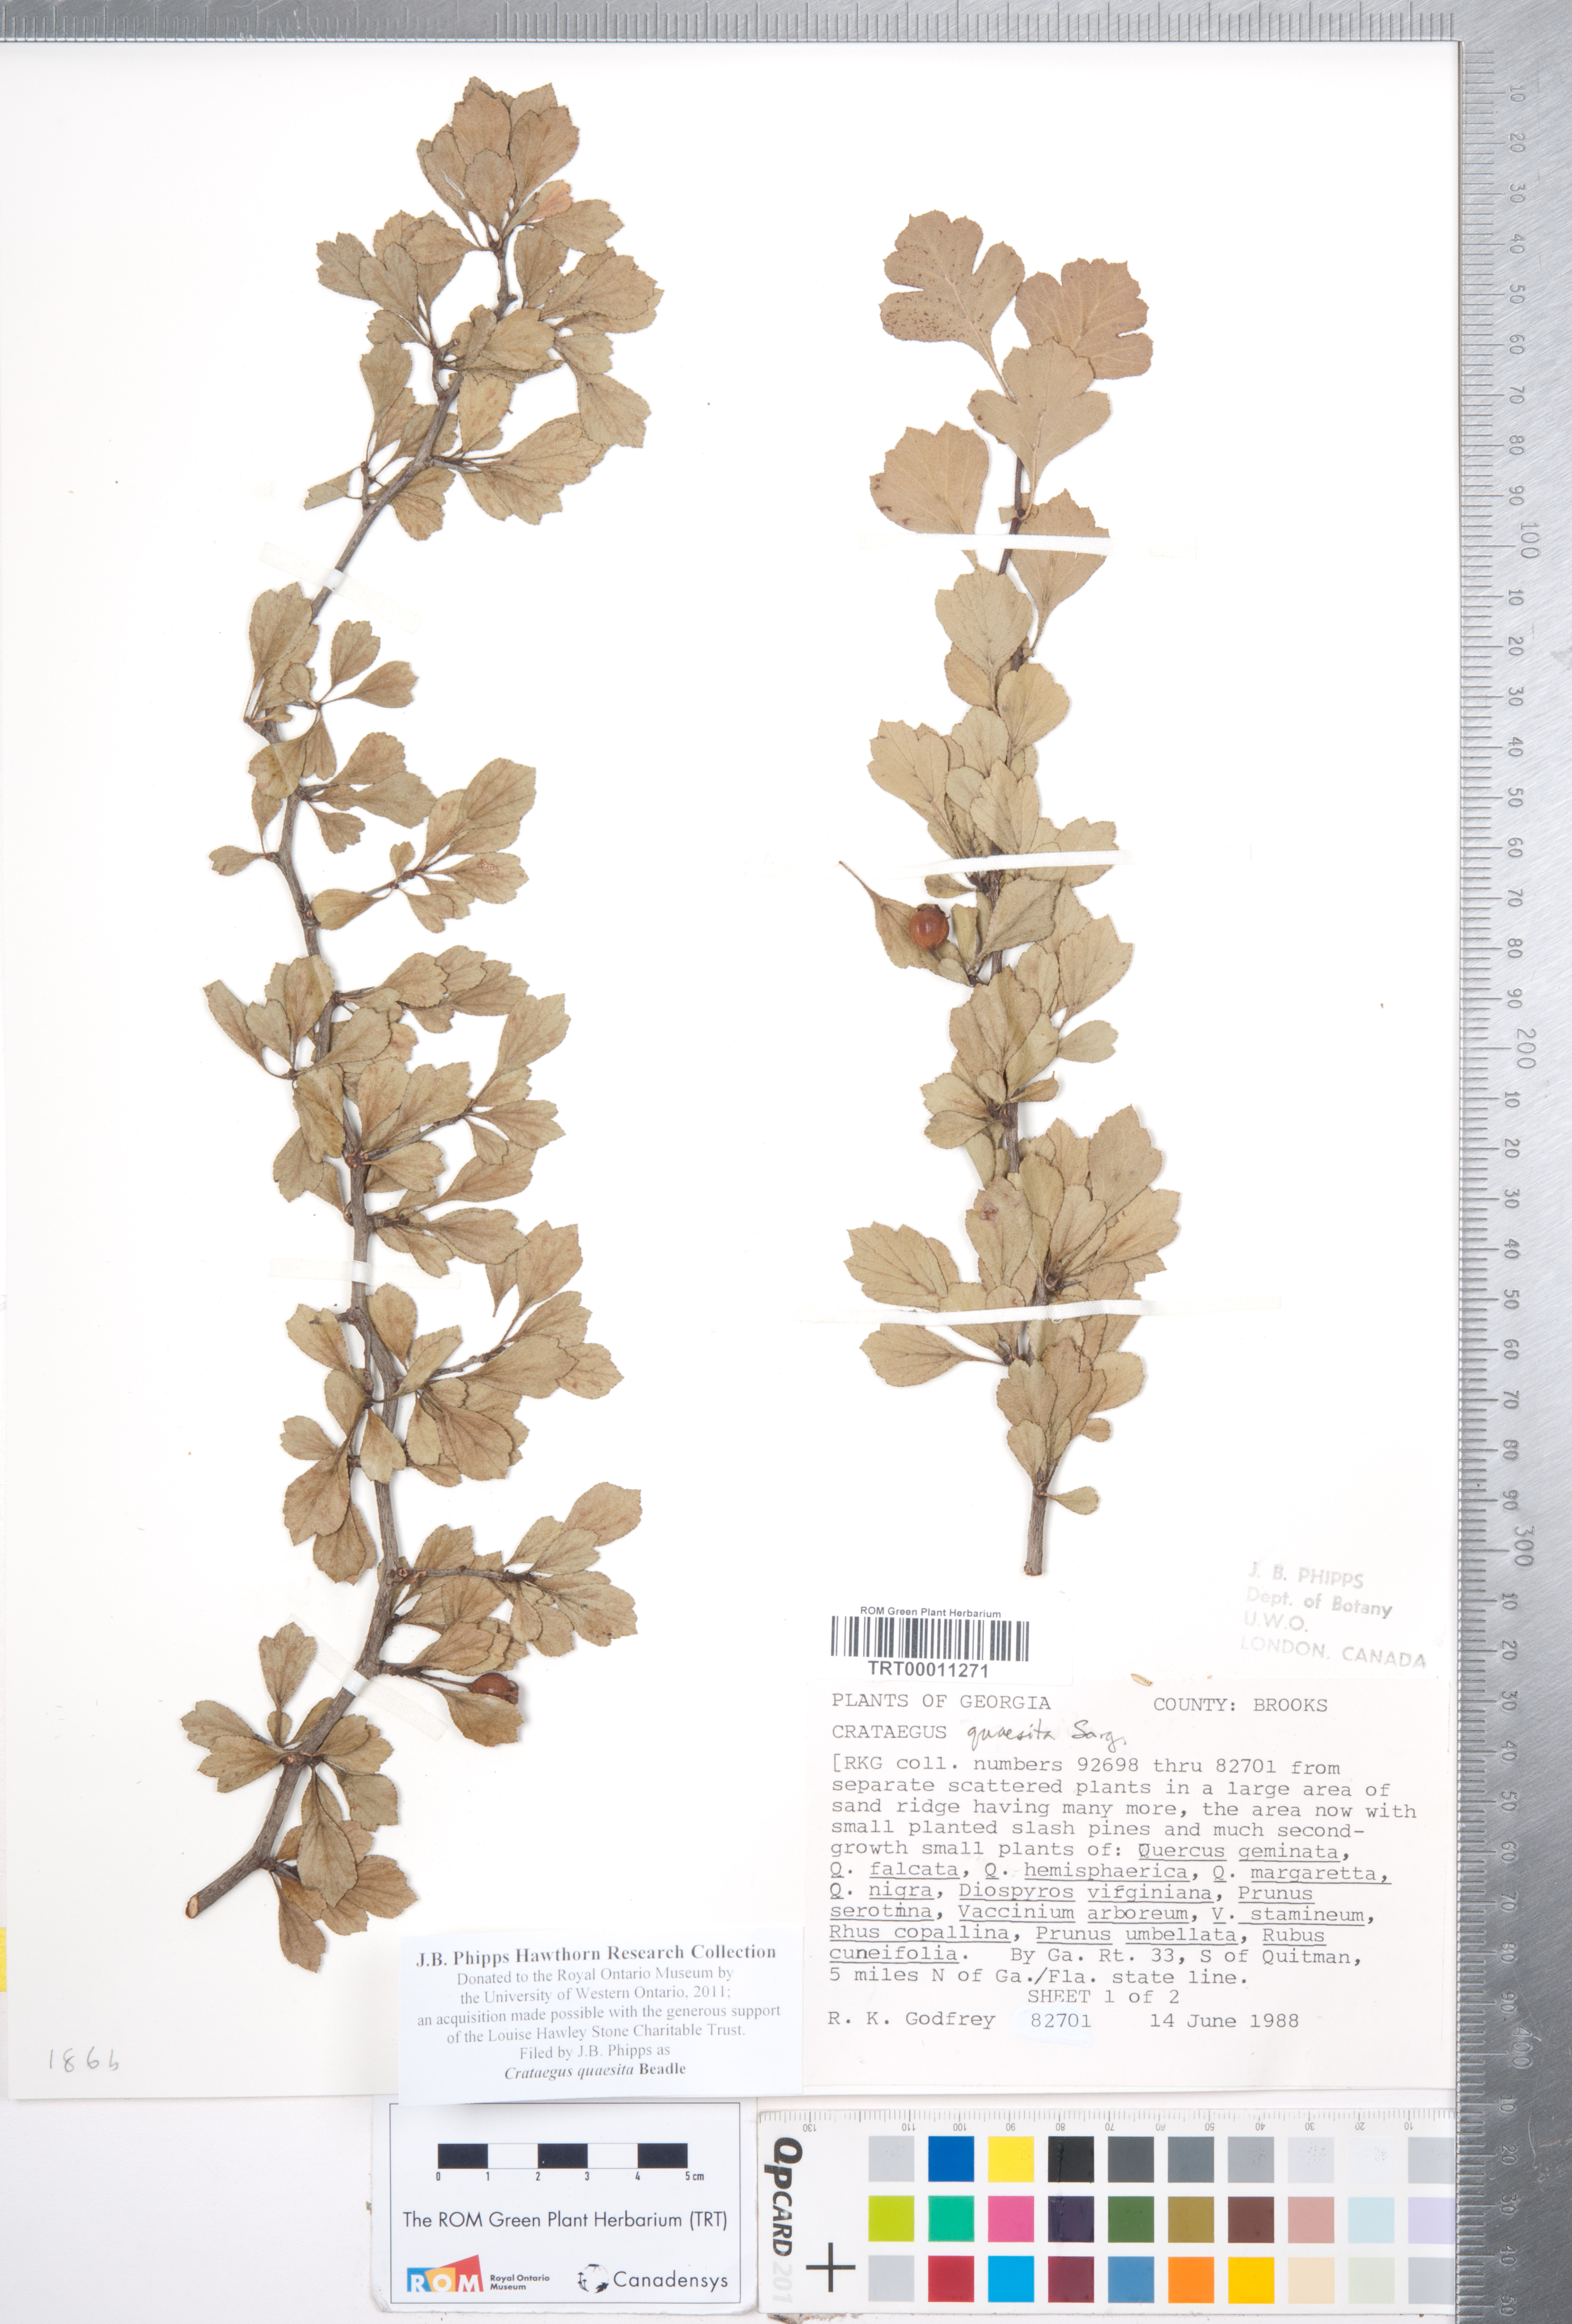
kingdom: Plantae
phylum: Tracheophyta
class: Magnoliopsida
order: Rosales
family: Rosaceae
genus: Crataegus
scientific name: Crataegus senta
